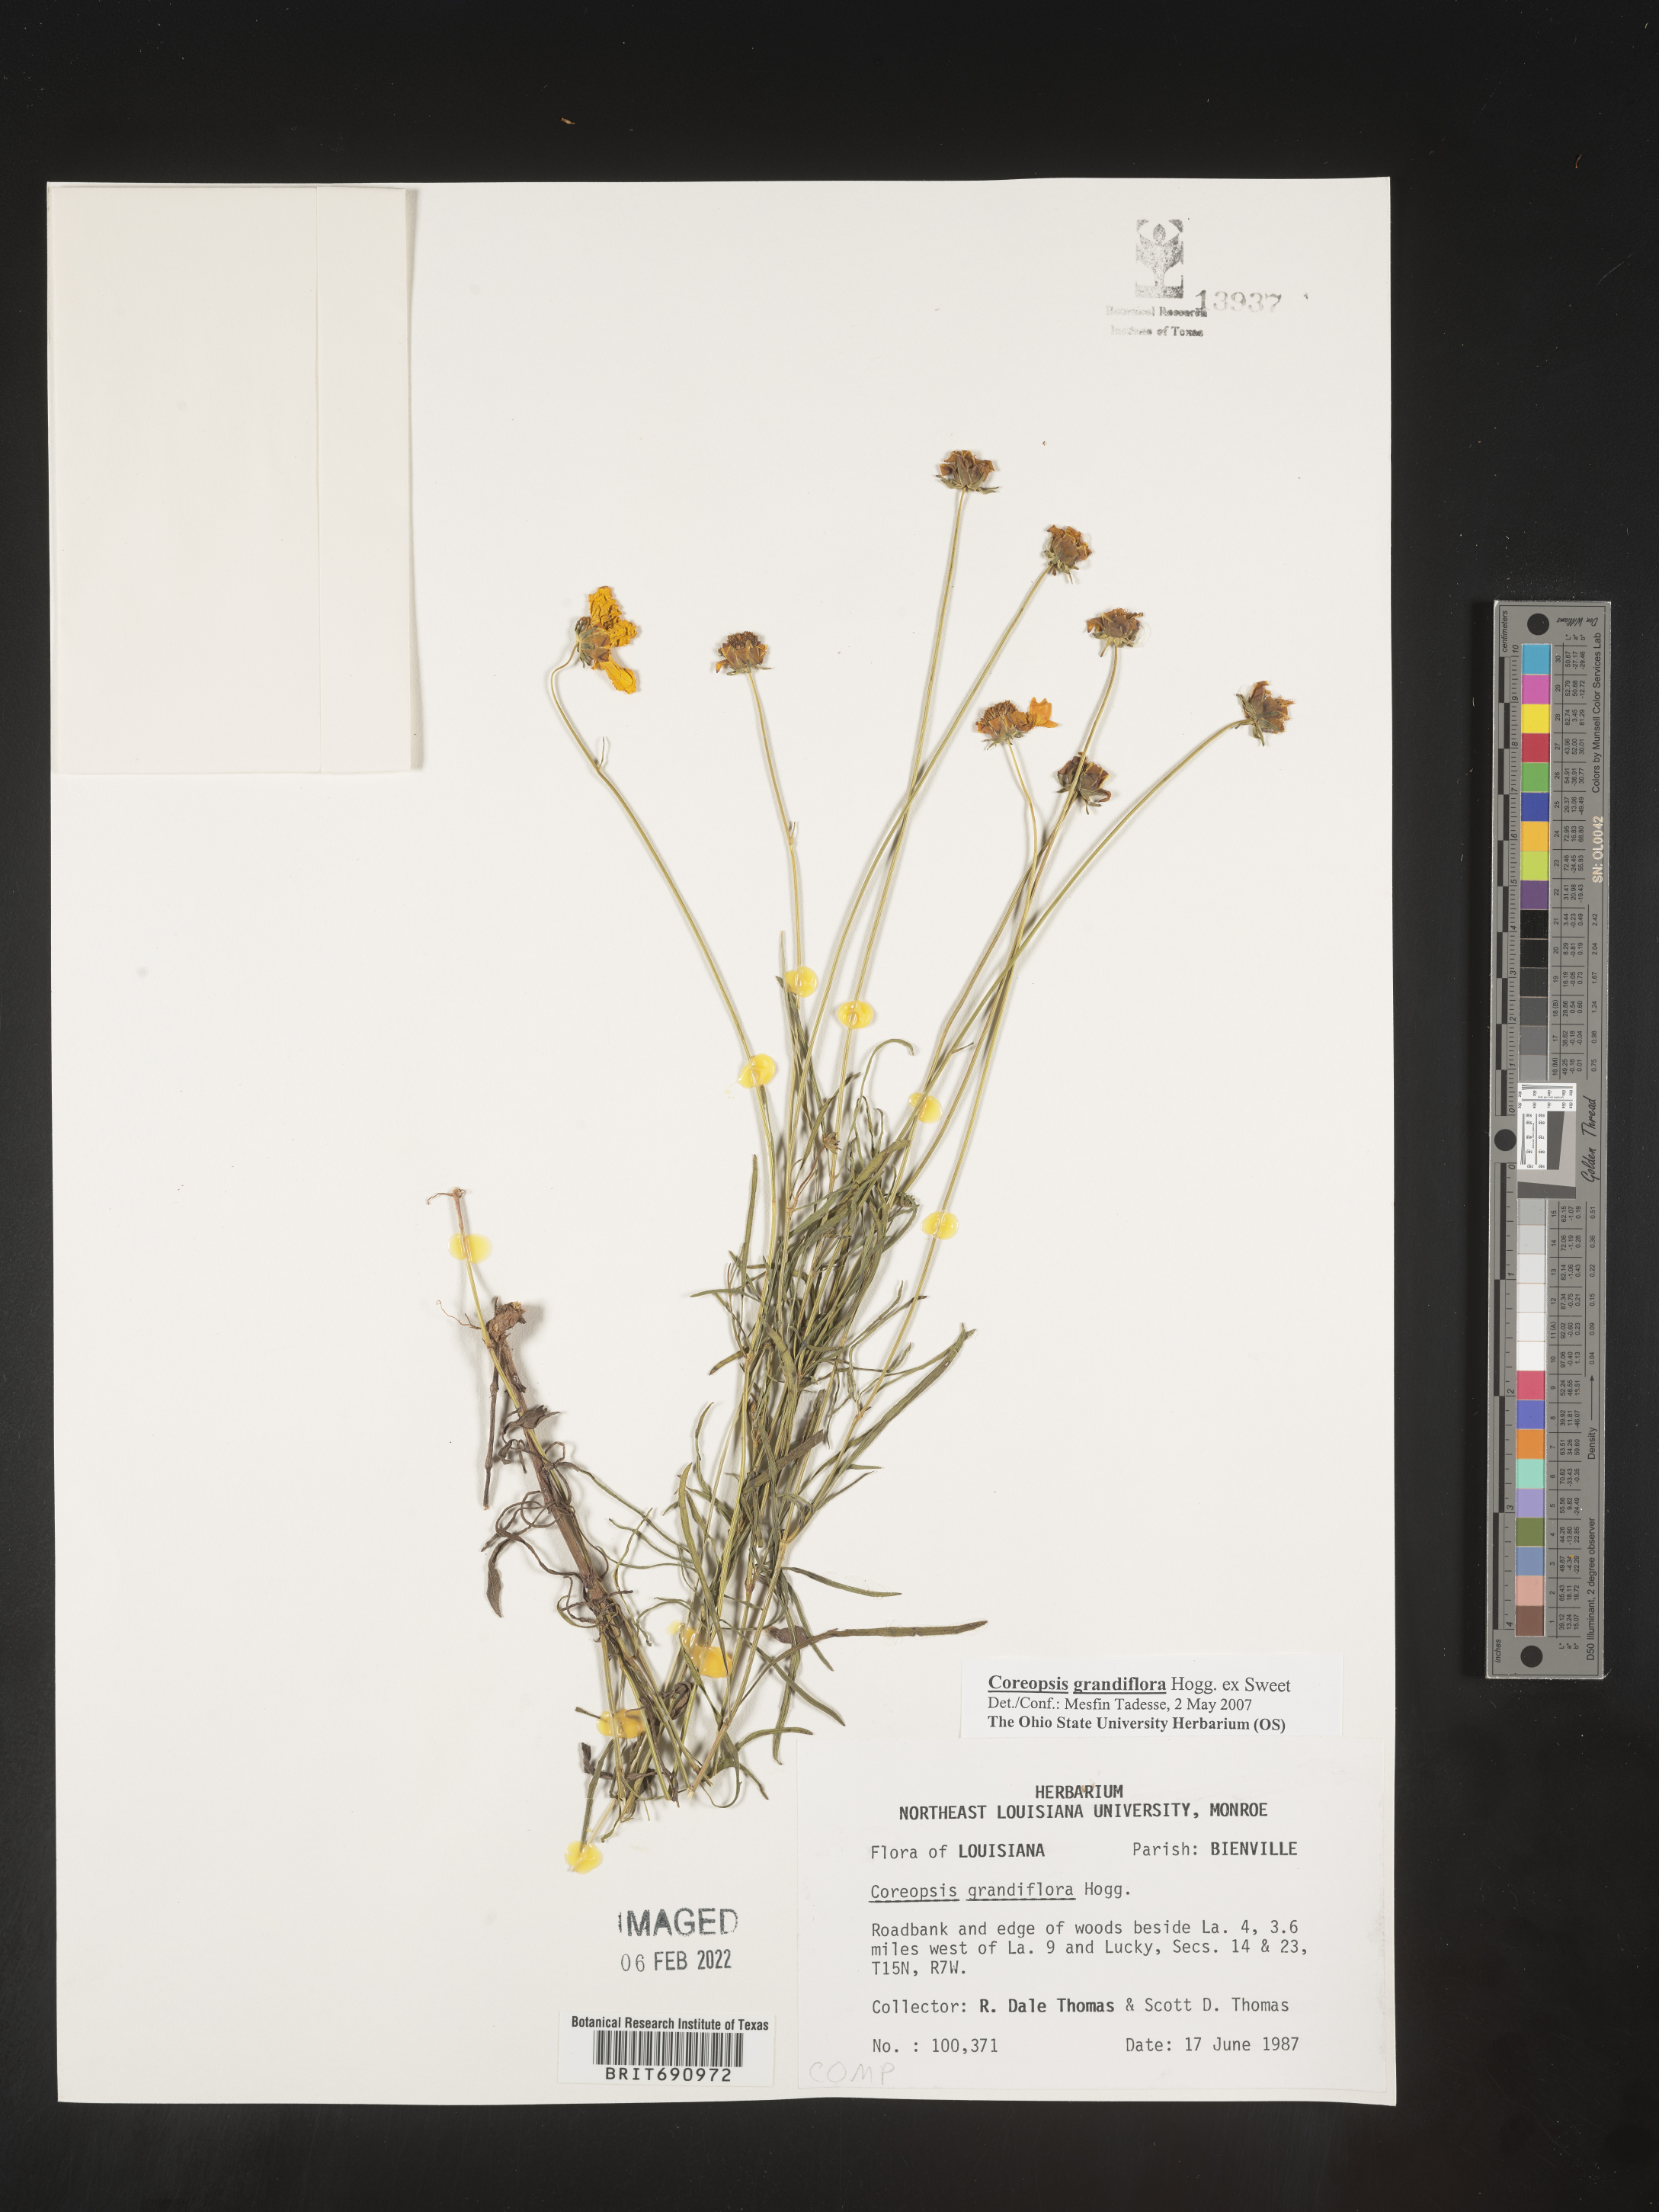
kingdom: Plantae
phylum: Tracheophyta
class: Magnoliopsida
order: Asterales
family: Asteraceae
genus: Coreopsis
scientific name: Coreopsis grandiflora
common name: Large-flowered tickseed
